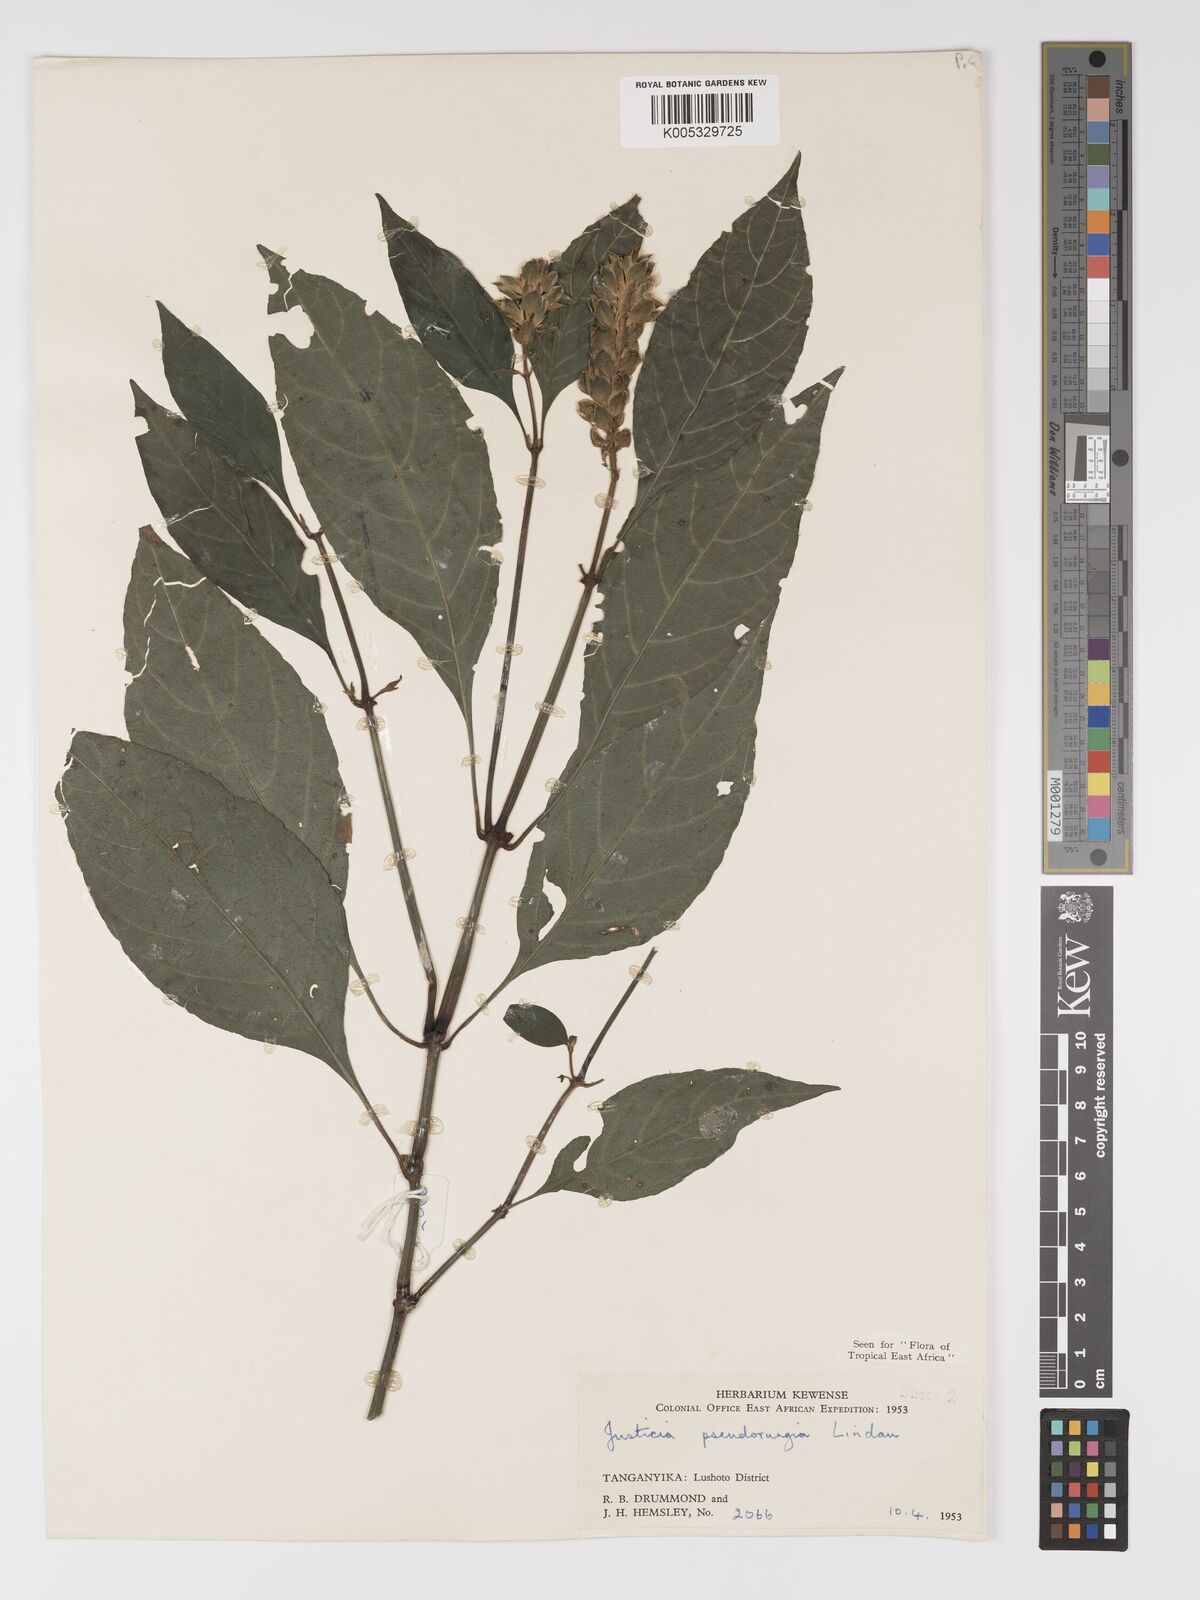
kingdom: Plantae
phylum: Tracheophyta
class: Magnoliopsida
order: Lamiales
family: Acanthaceae
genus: Justicia
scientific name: Justicia pseudorungia
